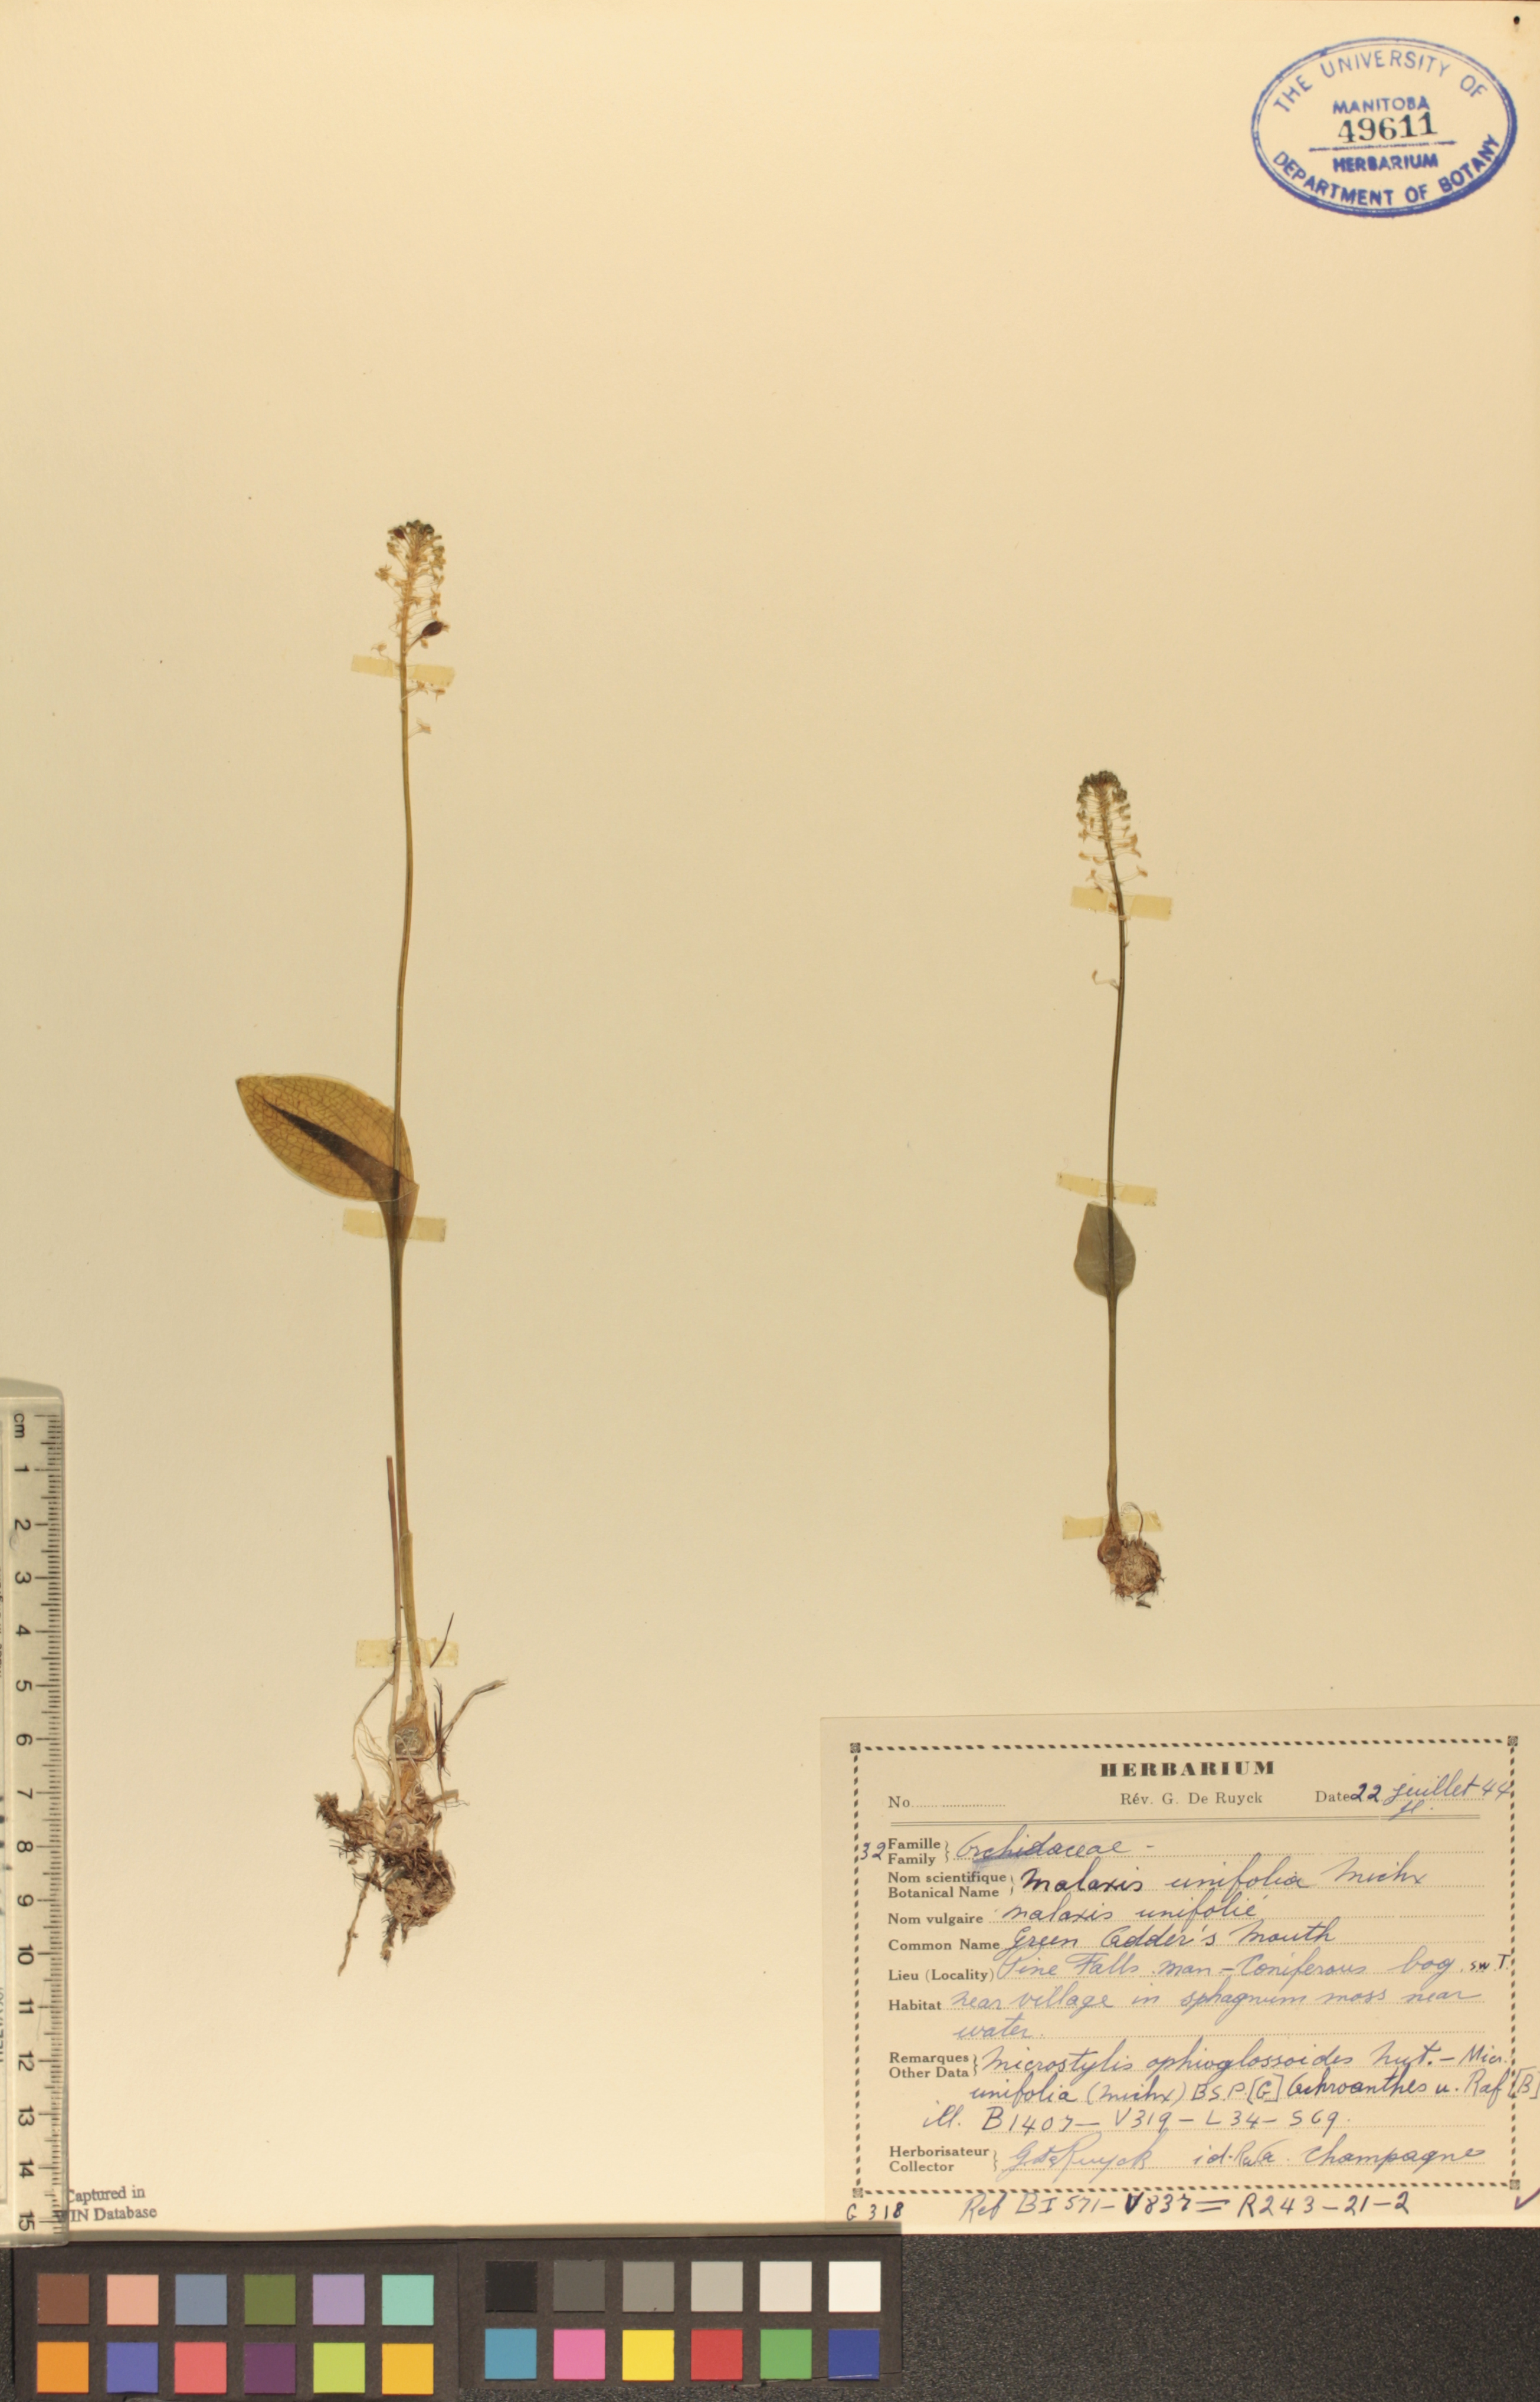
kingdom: Plantae
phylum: Tracheophyta
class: Liliopsida
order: Asparagales
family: Orchidaceae
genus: Malaxis
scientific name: Malaxis unifolia
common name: Green adder's-mouth
